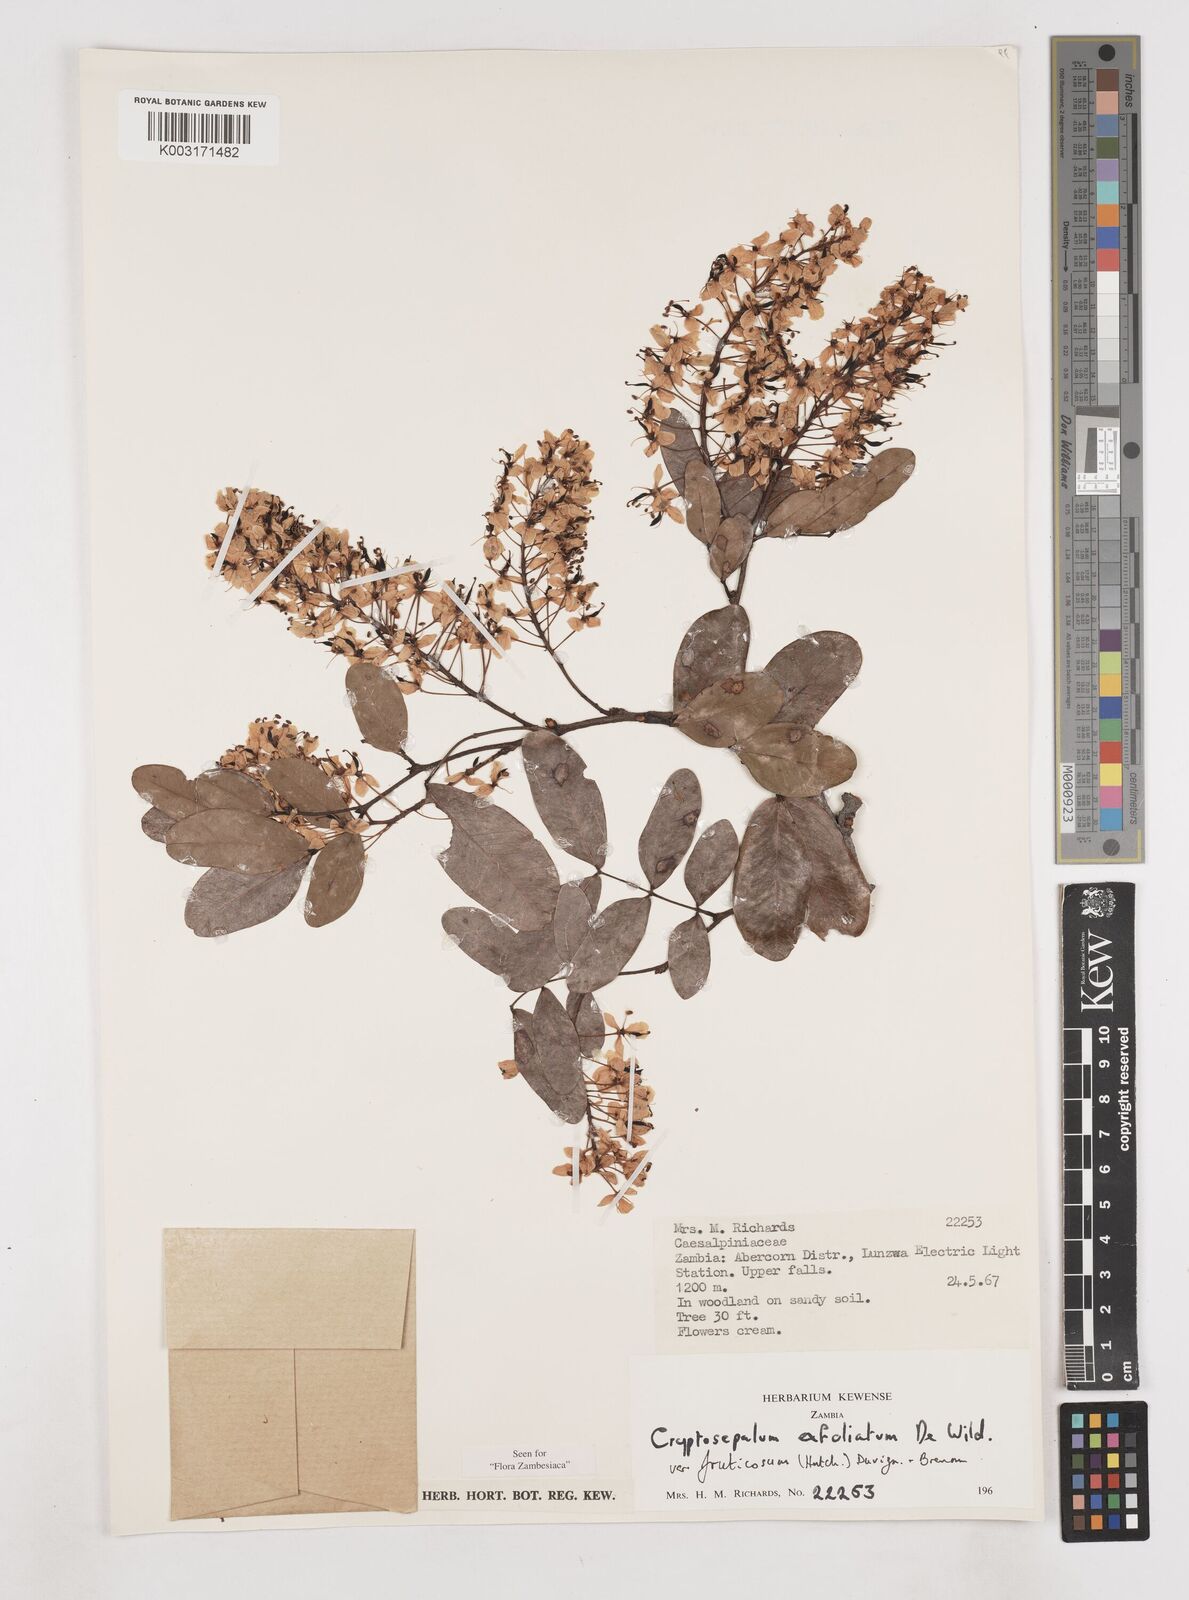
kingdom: Plantae
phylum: Tracheophyta
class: Magnoliopsida
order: Fabales
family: Fabaceae
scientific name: Fabaceae
